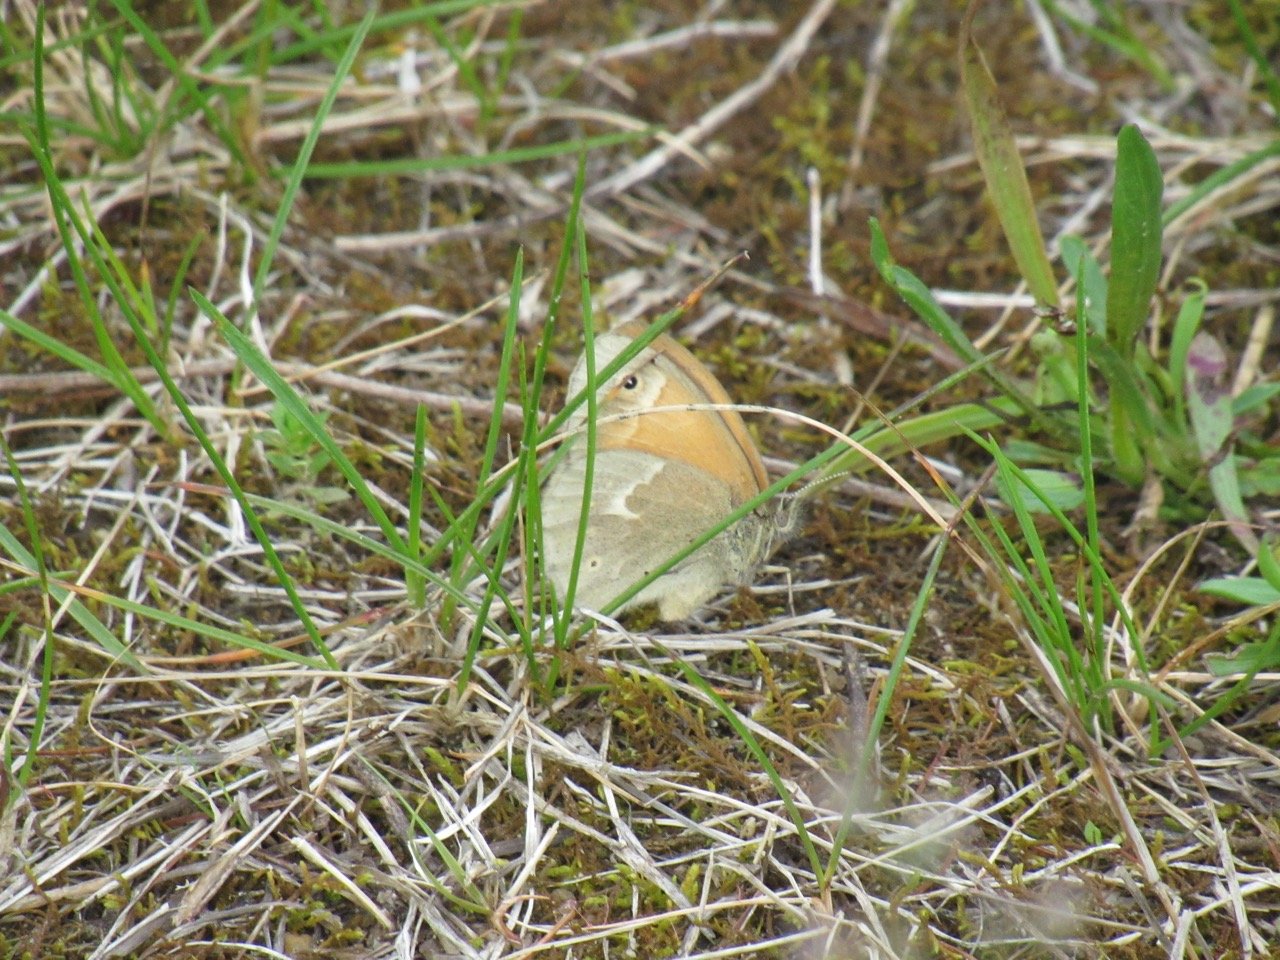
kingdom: Animalia
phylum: Arthropoda
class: Insecta
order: Lepidoptera
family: Nymphalidae
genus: Coenonympha
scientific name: Coenonympha tullia
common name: Large Heath
